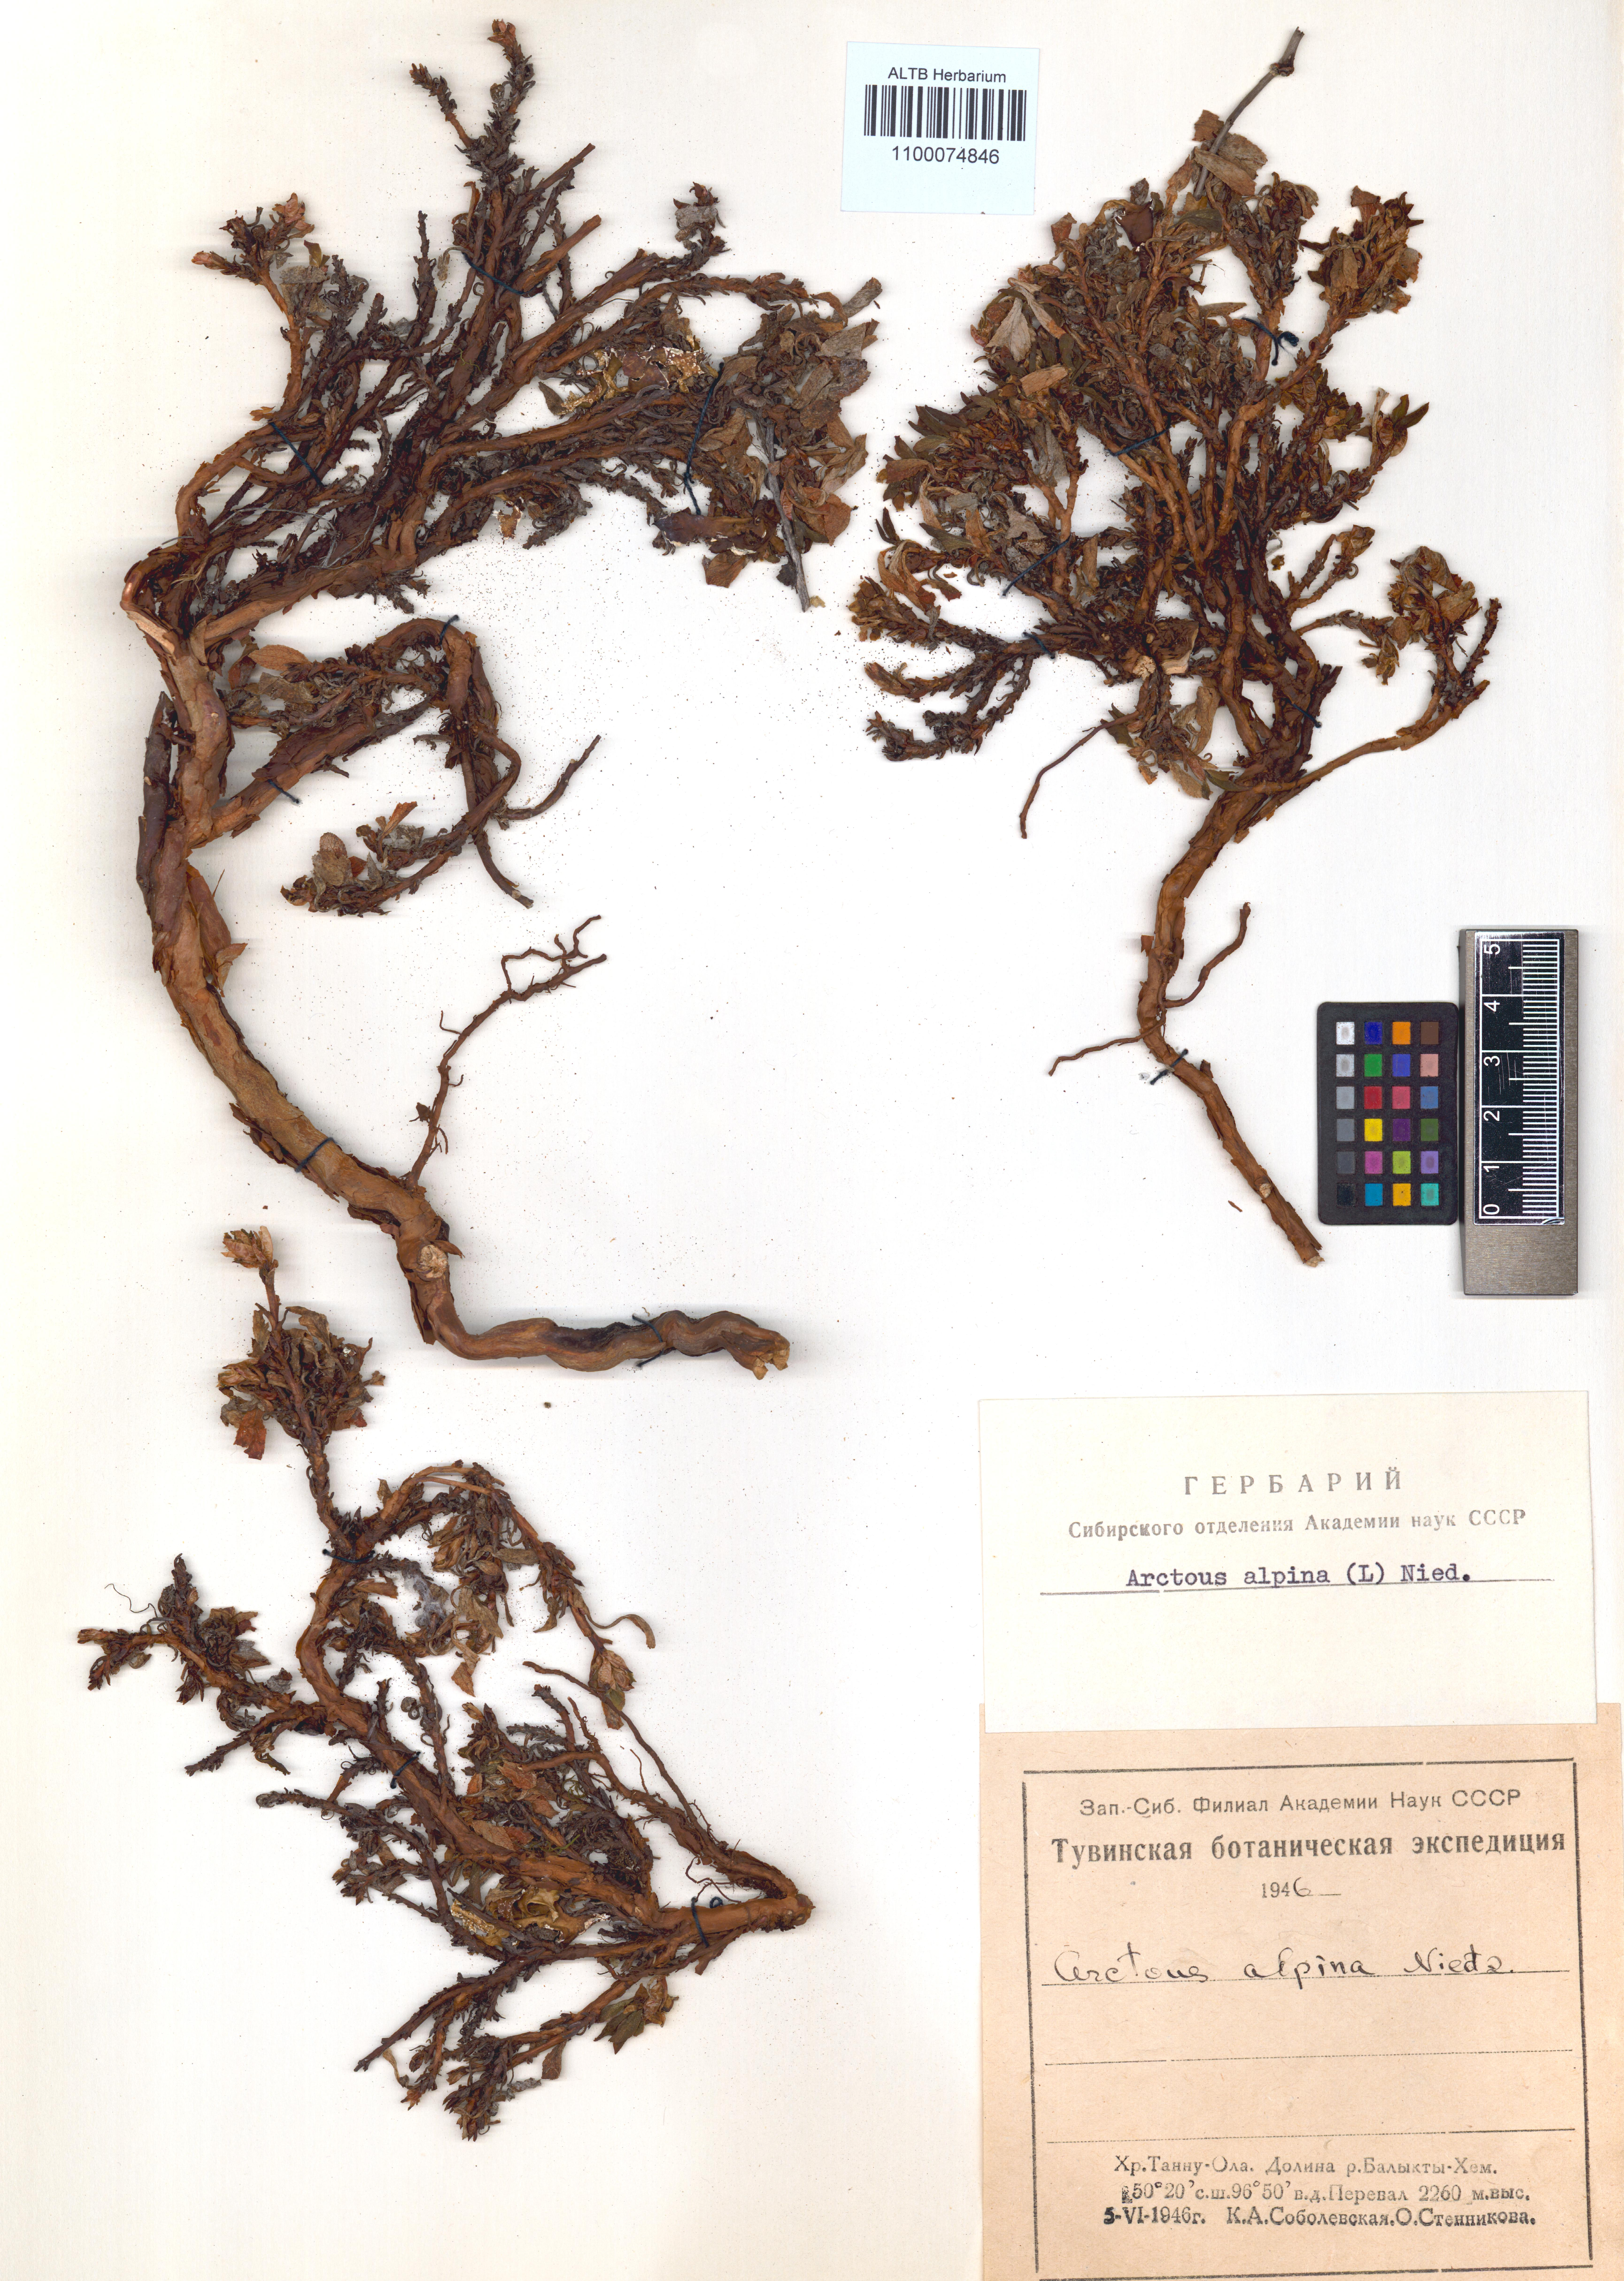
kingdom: Plantae
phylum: Tracheophyta
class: Magnoliopsida
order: Ericales
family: Ericaceae
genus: Arctostaphylos
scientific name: Arctostaphylos alpinus
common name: Alpine bearberry
